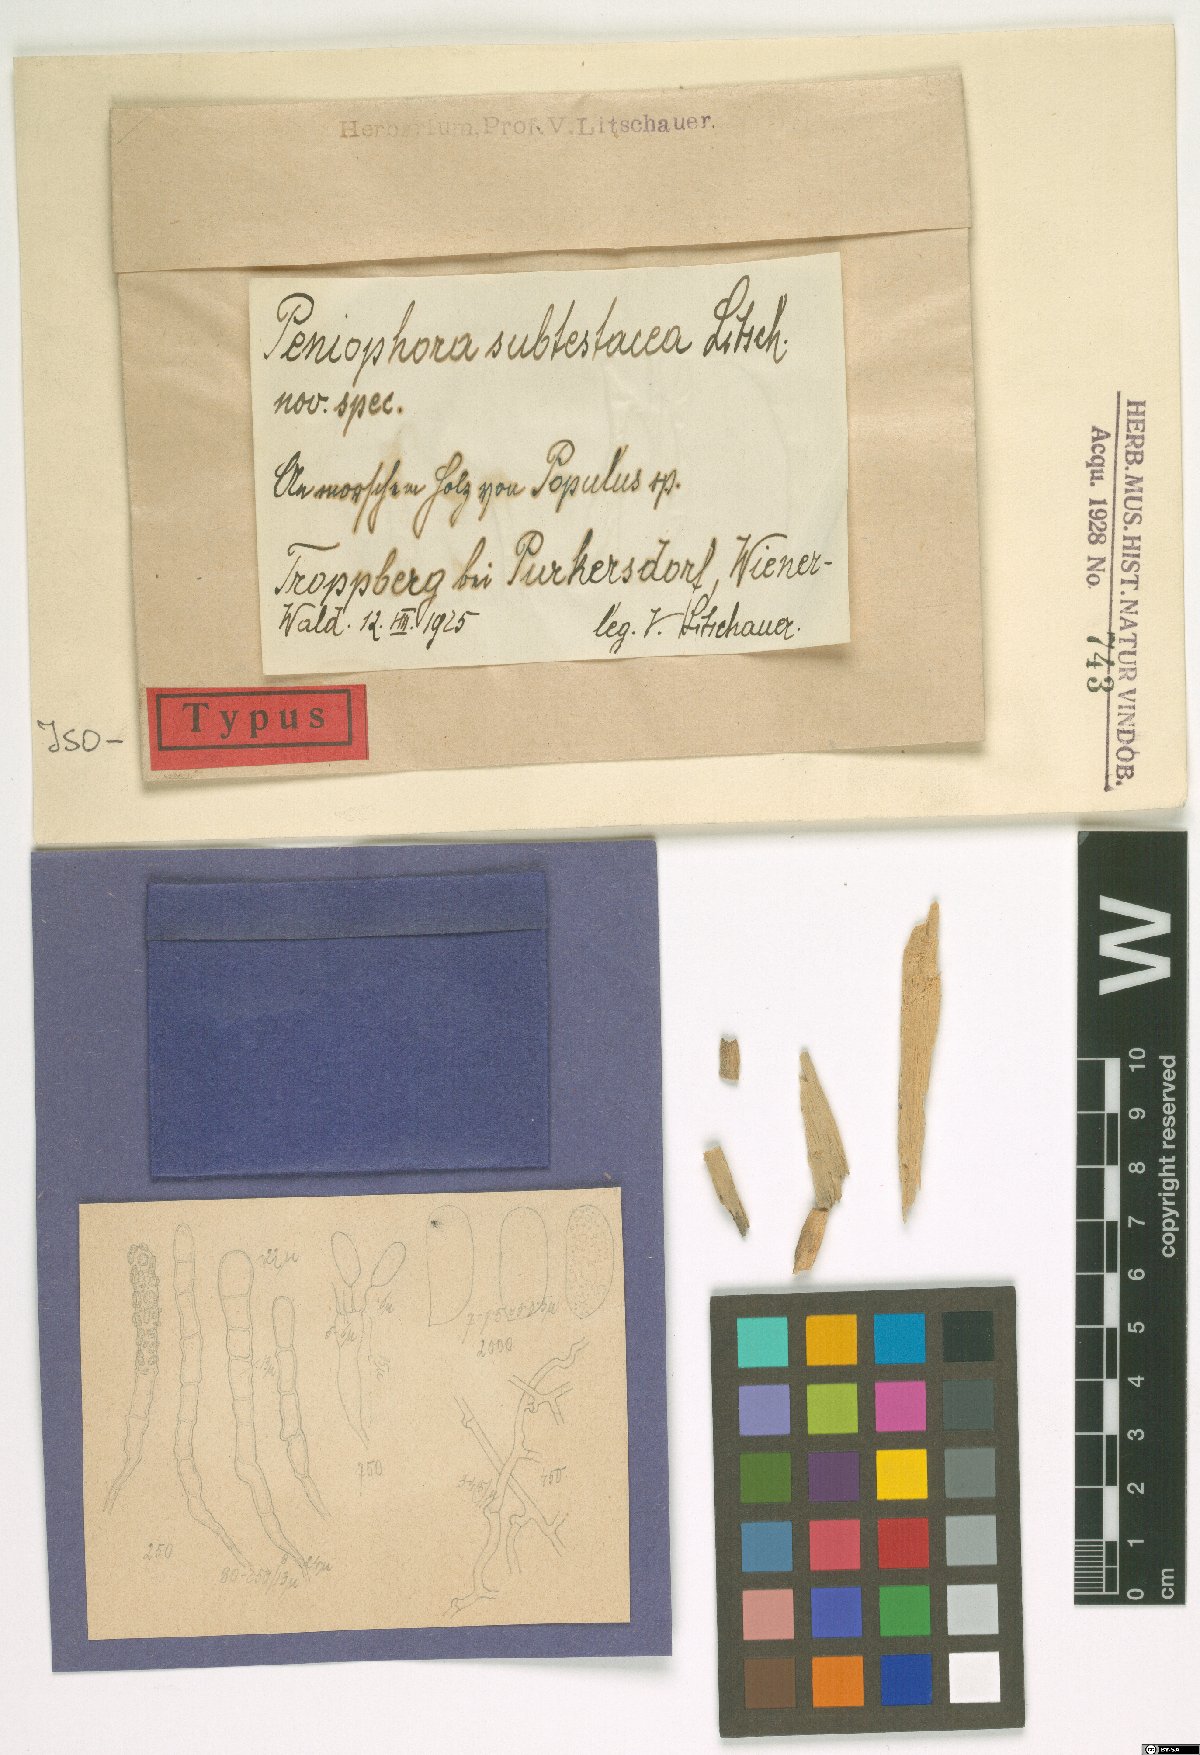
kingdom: Fungi
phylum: Basidiomycota
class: Agaricomycetes
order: Polyporales
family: Hyphodermataceae
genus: Hyphoderma
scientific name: Hyphoderma setigerum
